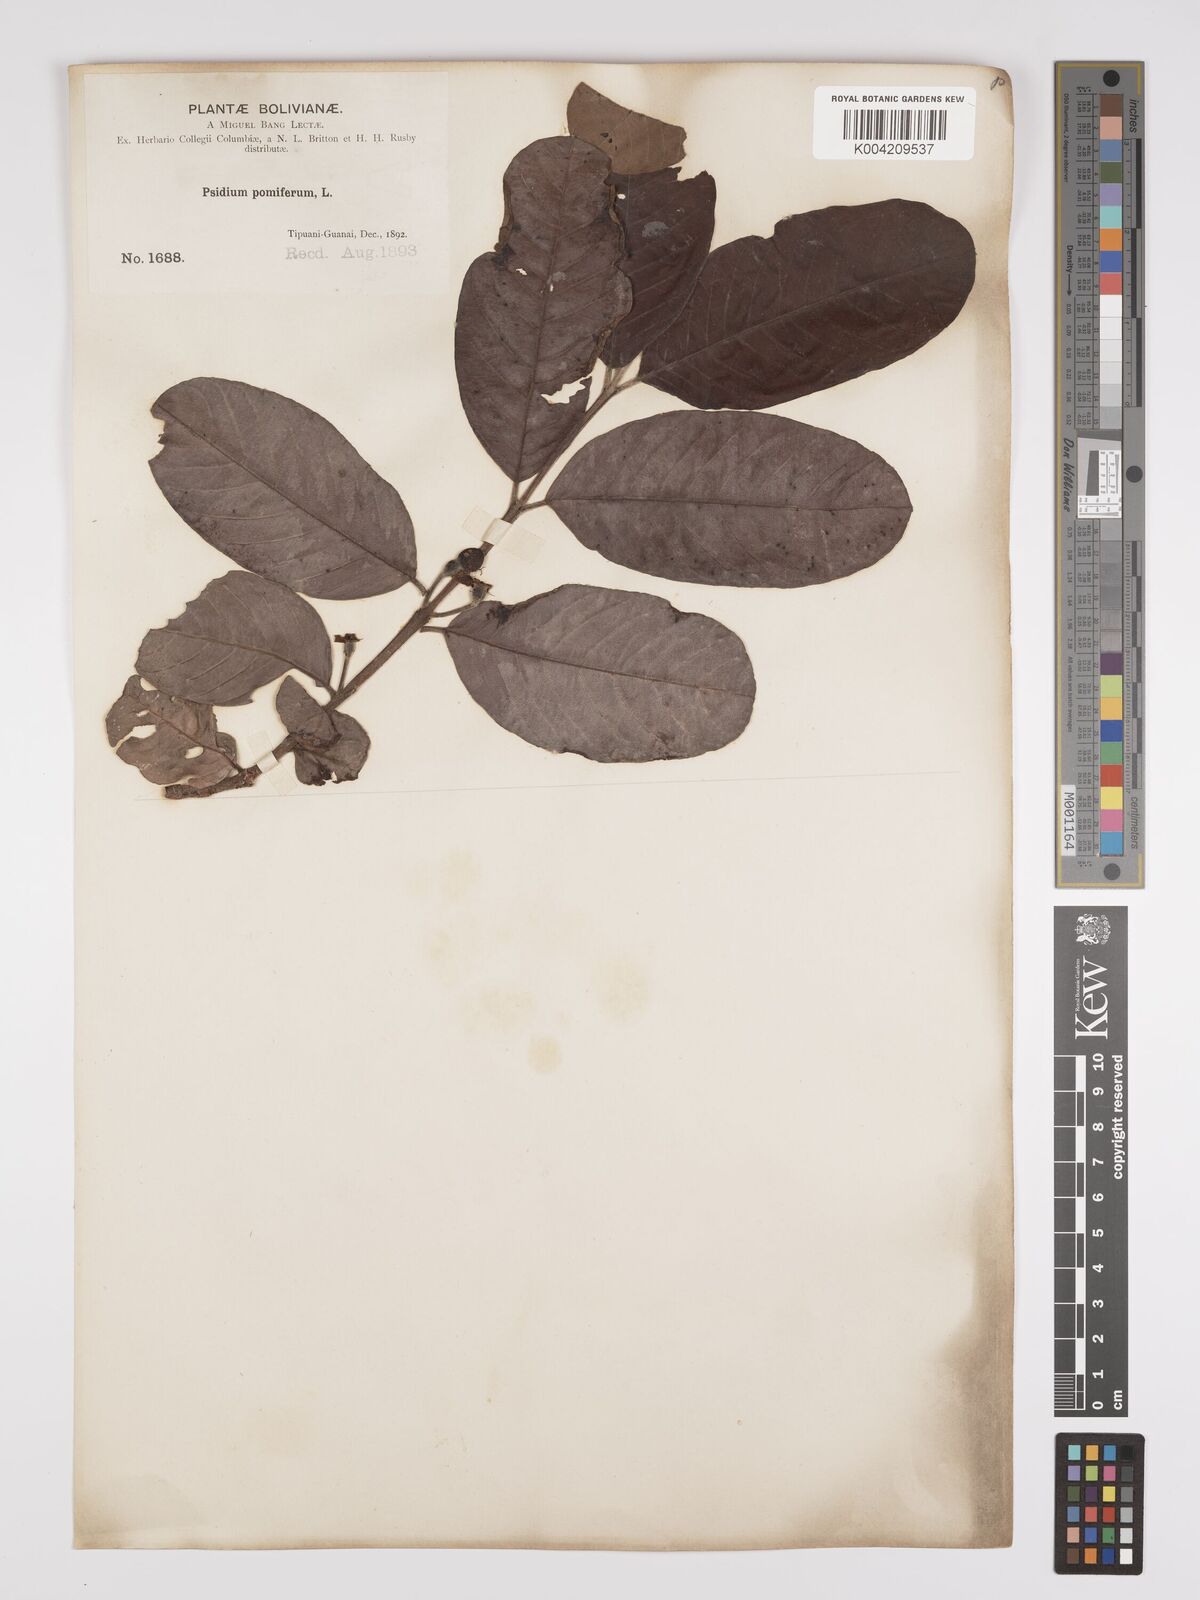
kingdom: Plantae
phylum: Tracheophyta
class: Magnoliopsida
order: Myrtales
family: Myrtaceae
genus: Psidium
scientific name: Psidium guajava
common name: Guava
